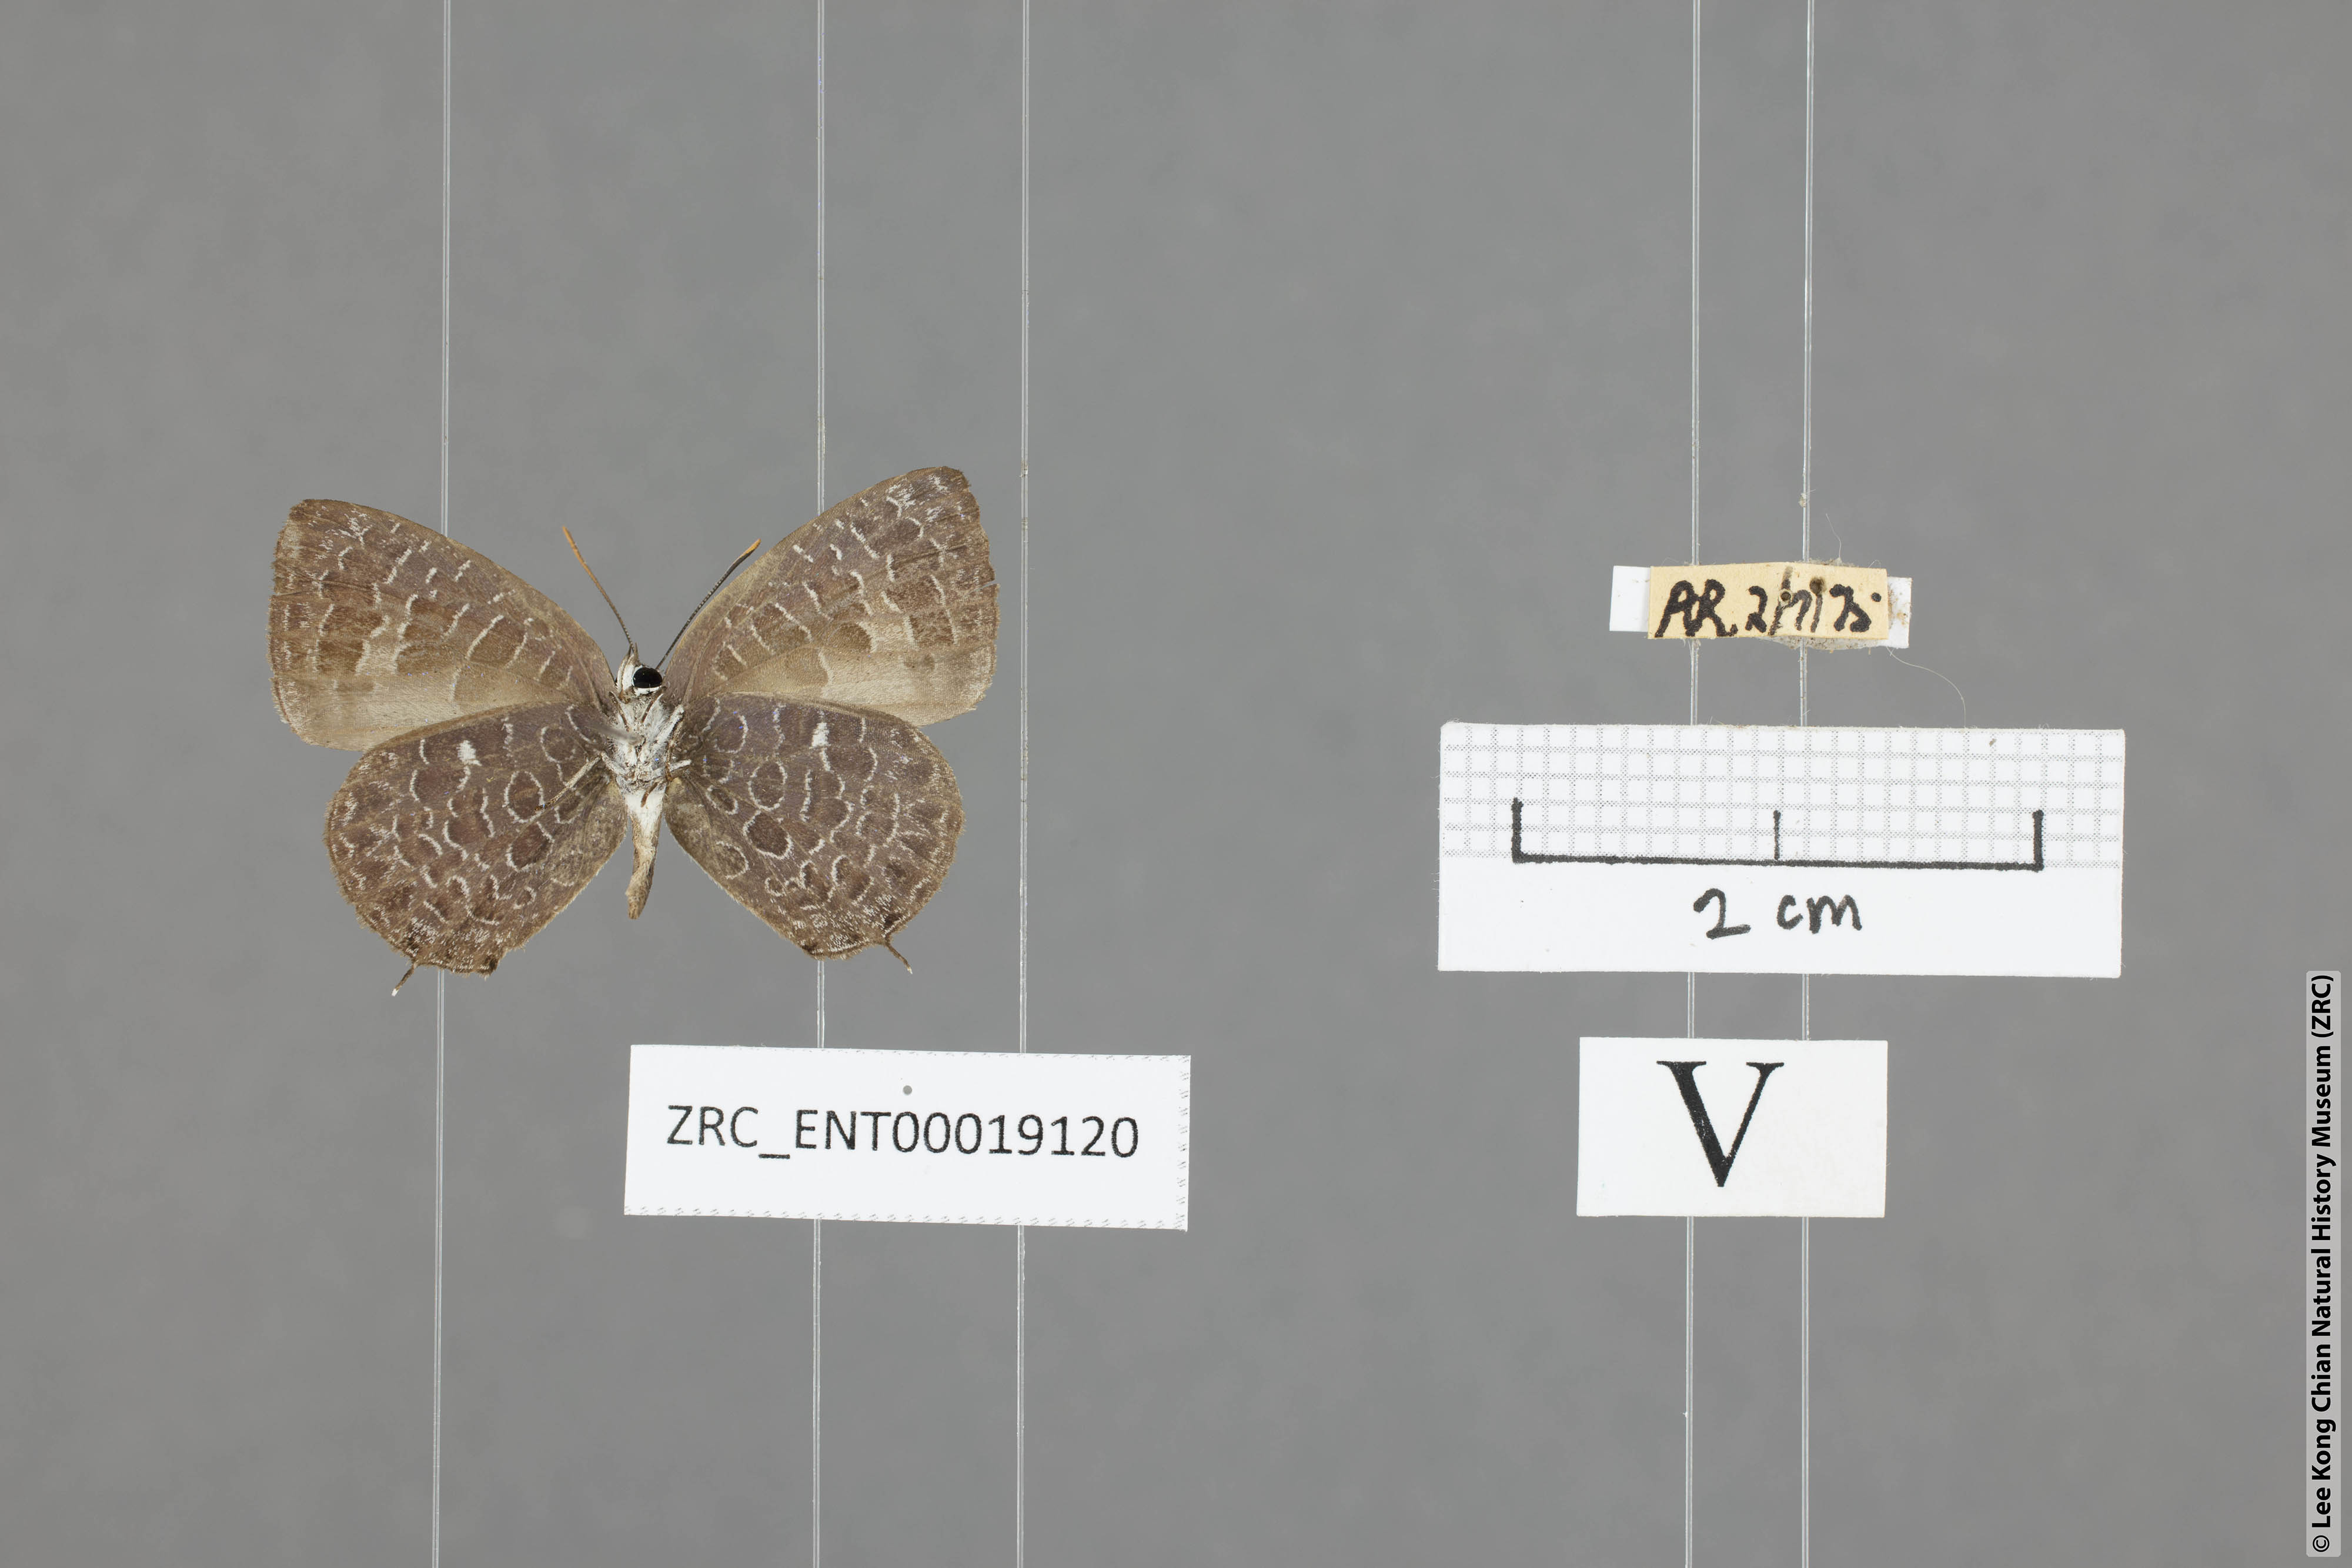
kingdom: Animalia
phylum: Arthropoda
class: Insecta
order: Lepidoptera
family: Lycaenidae
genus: Arhopala
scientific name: Arhopala ammonides
